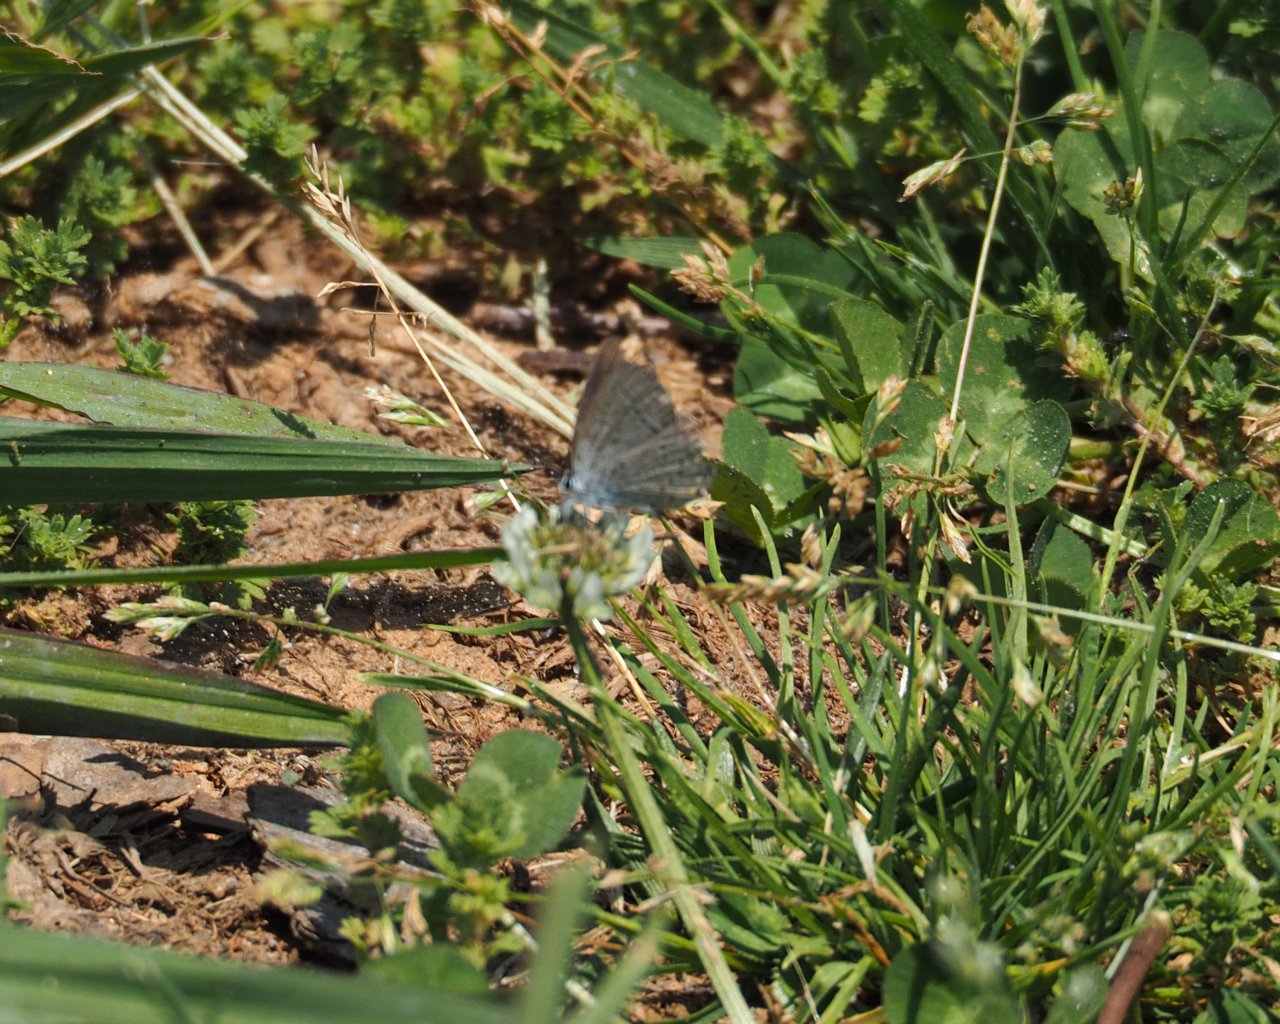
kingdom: Animalia
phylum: Arthropoda
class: Insecta
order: Lepidoptera
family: Lycaenidae
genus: Celastrina
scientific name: Celastrina ladon
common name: Spring Azure
